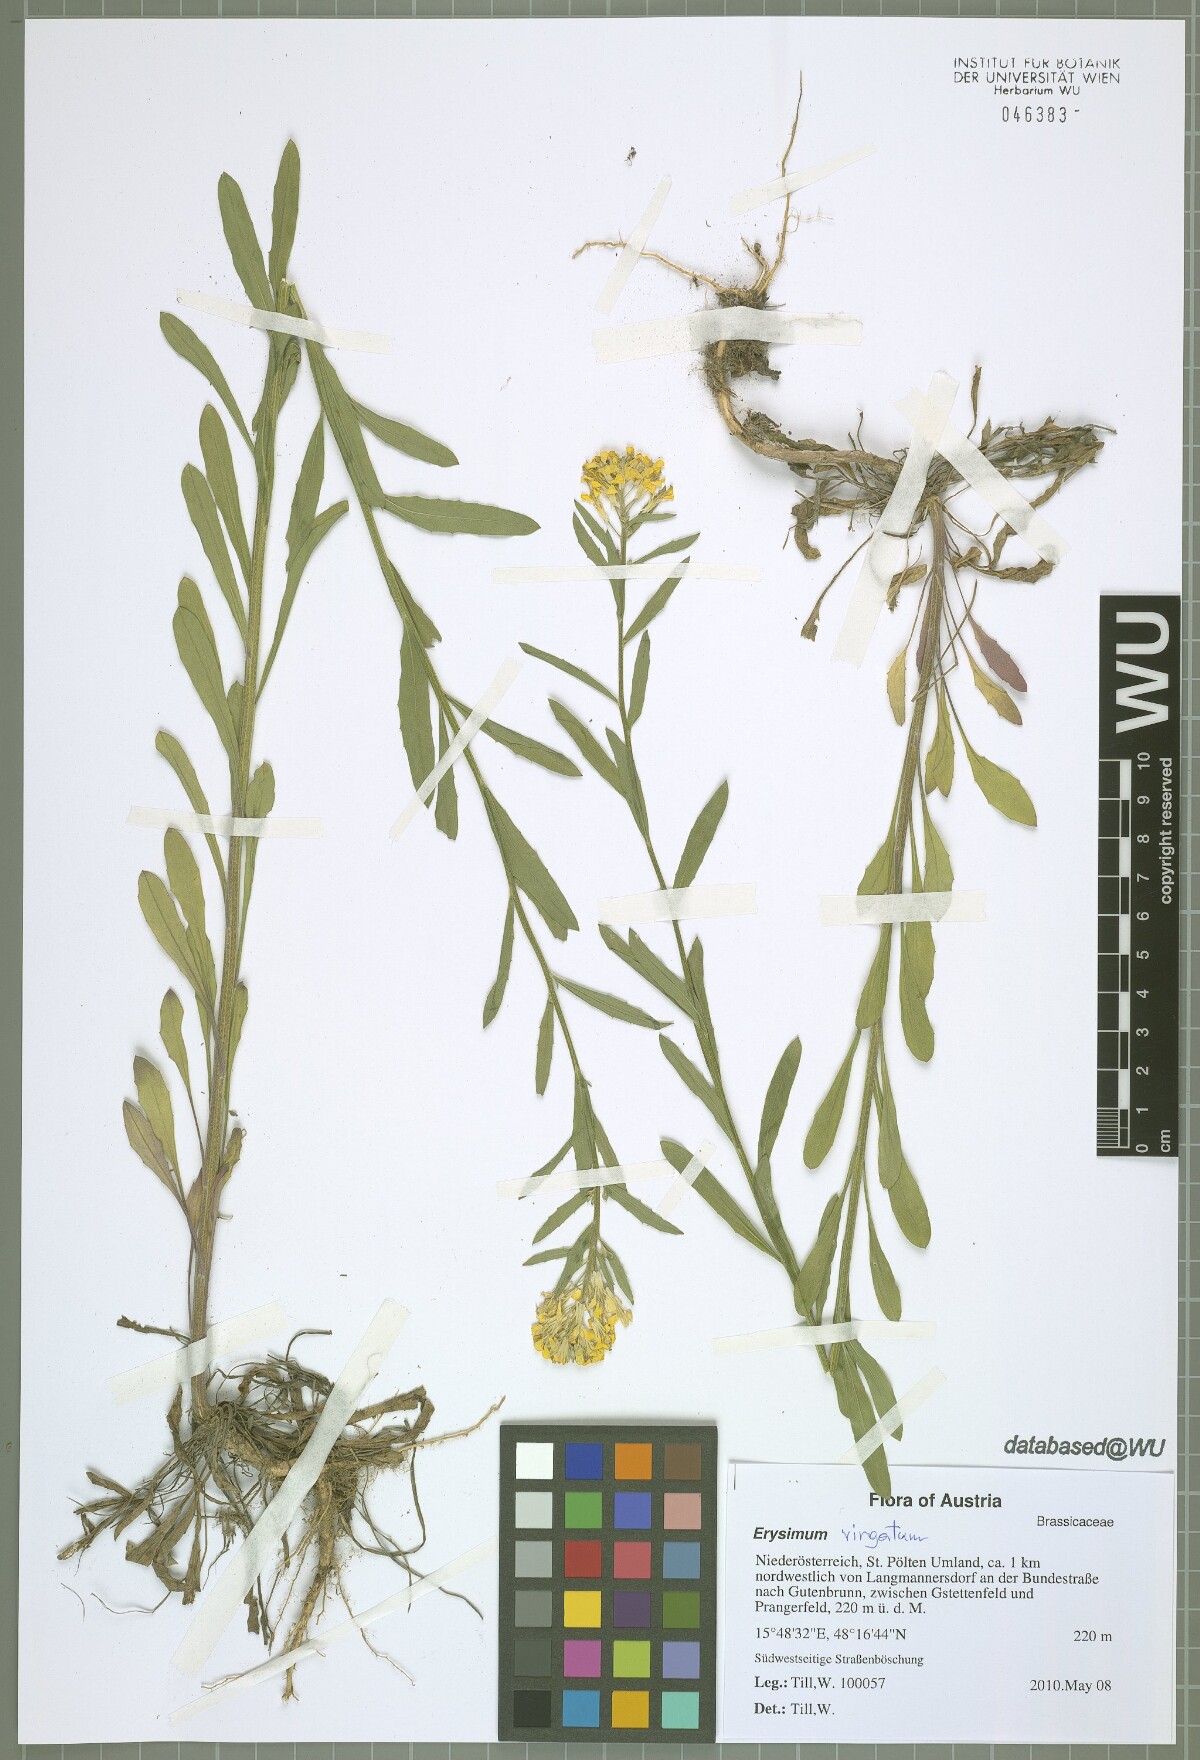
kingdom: Plantae
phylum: Tracheophyta
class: Magnoliopsida
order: Brassicales
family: Brassicaceae
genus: Erysimum
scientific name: Erysimum virgatum
